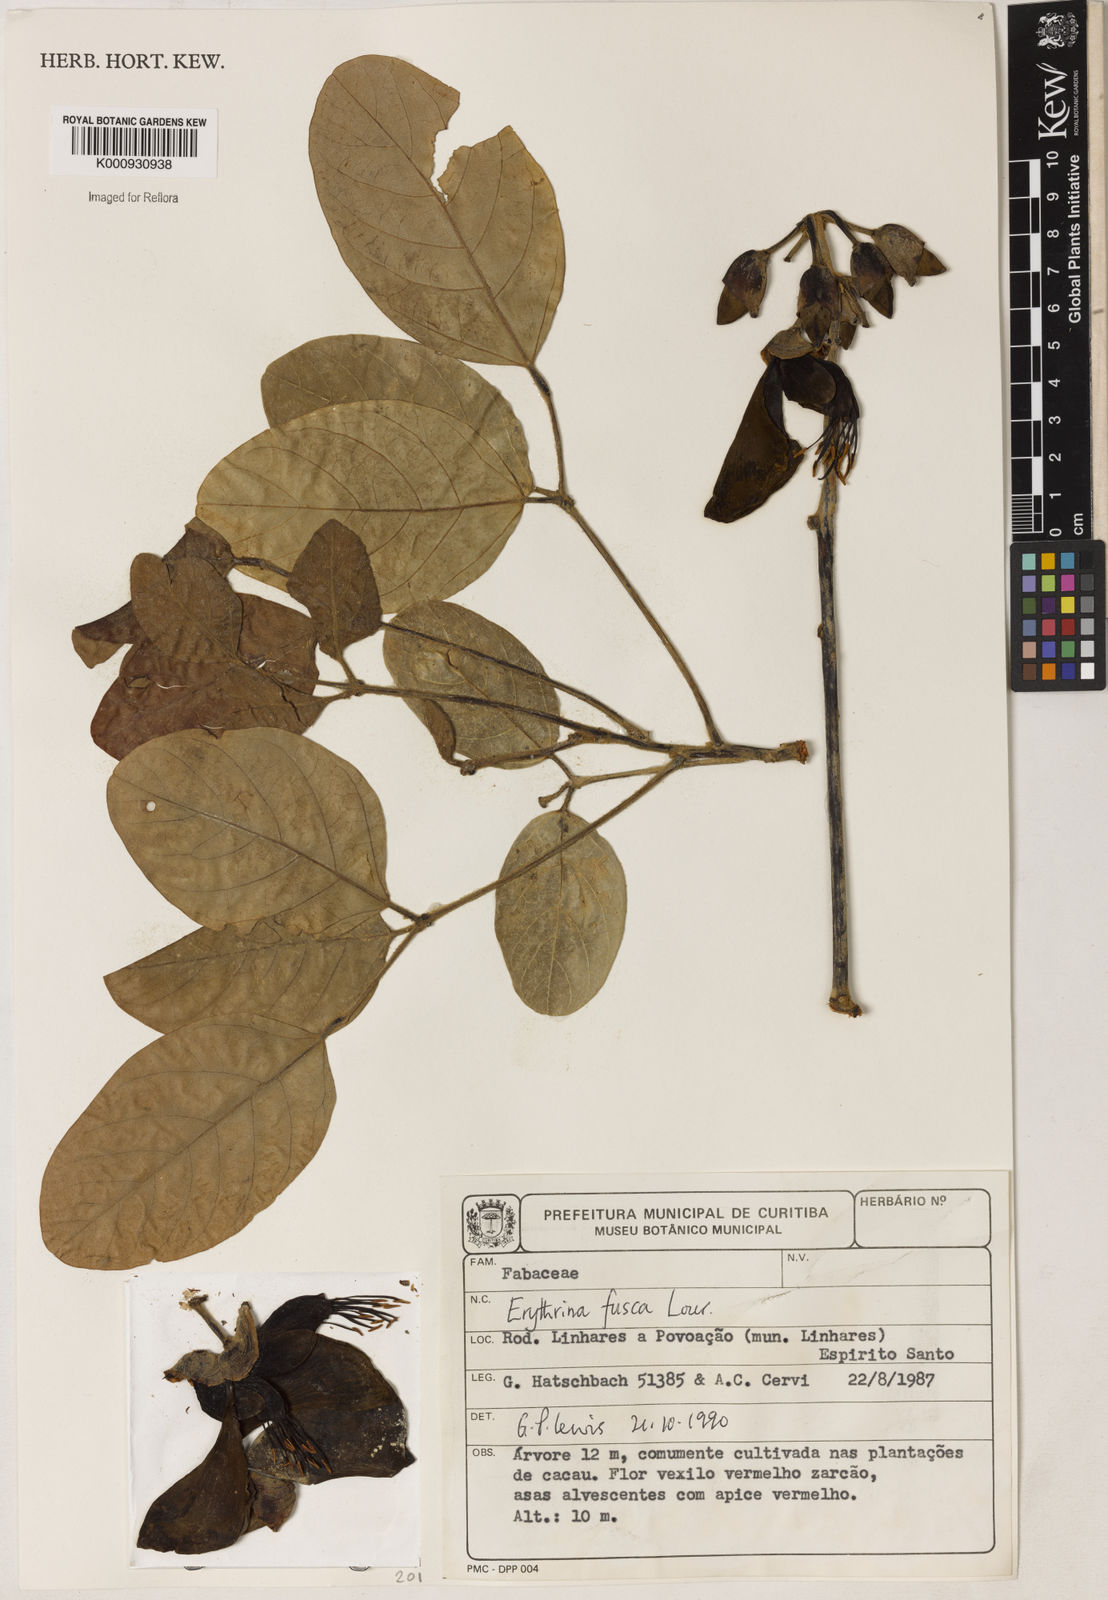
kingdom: Plantae
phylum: Tracheophyta
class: Magnoliopsida
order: Fabales
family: Fabaceae
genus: Erythrina
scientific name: Erythrina fusca
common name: Coral-bean
